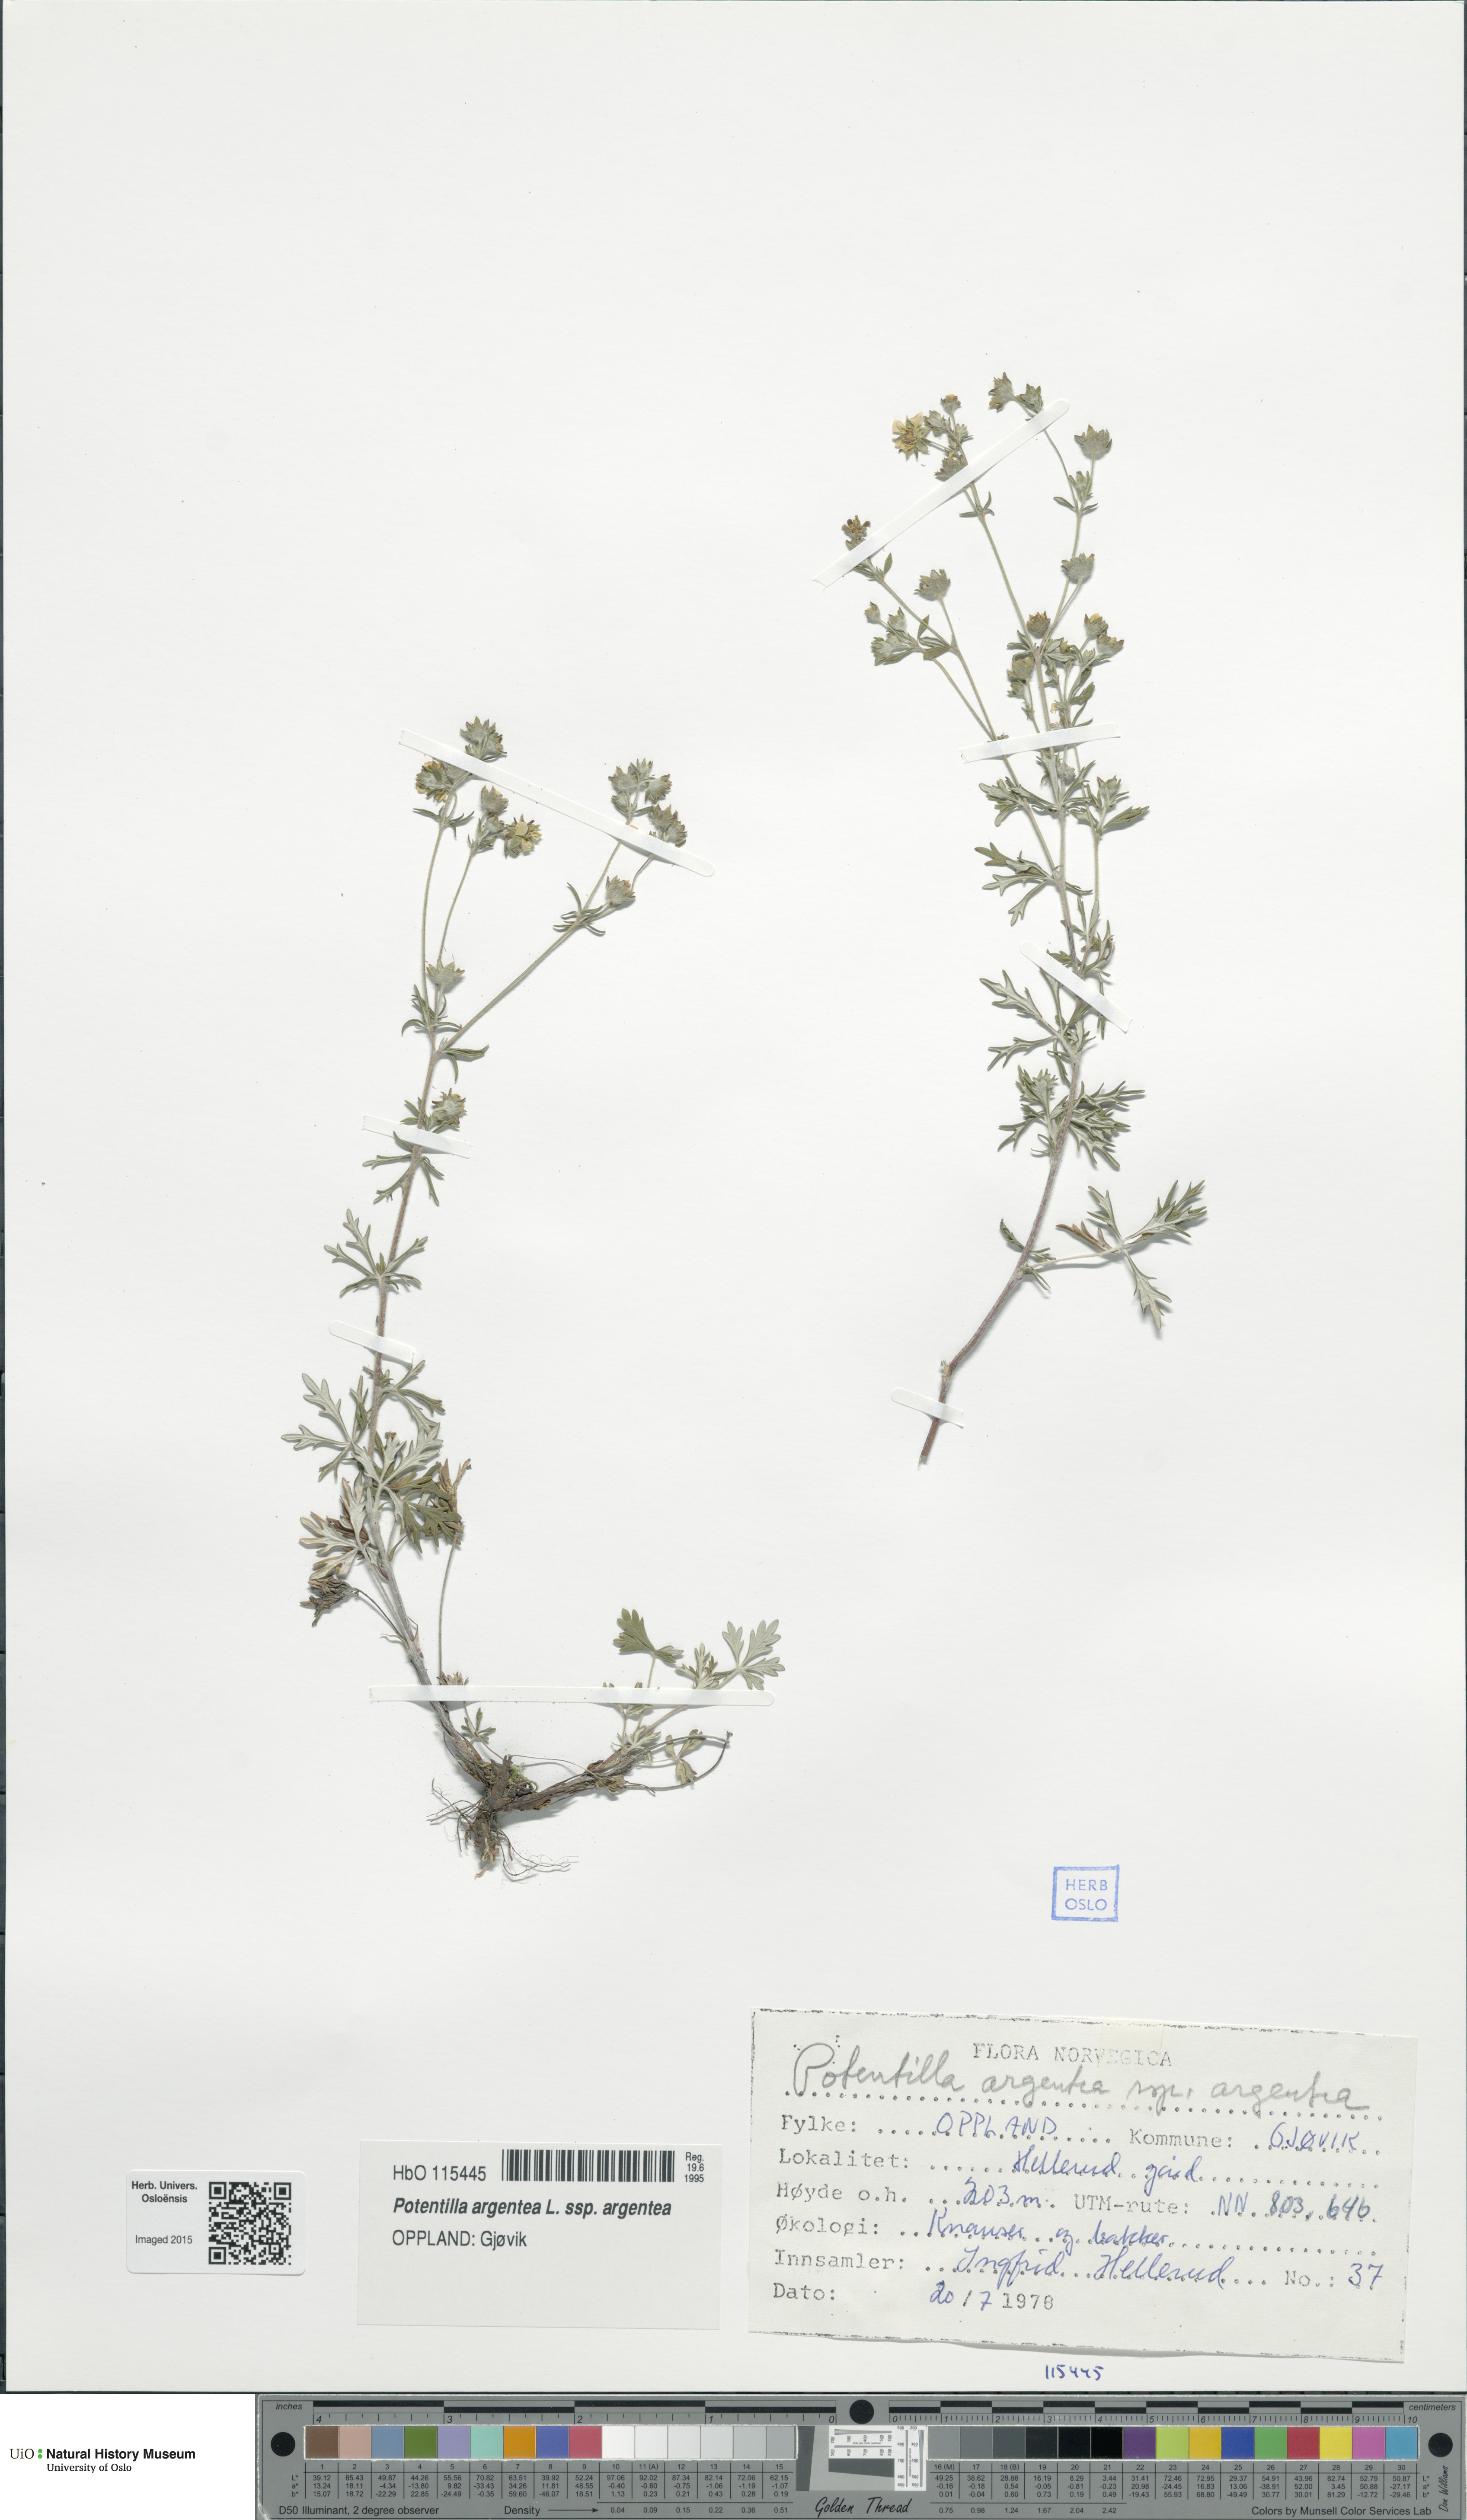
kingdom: Plantae
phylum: Tracheophyta
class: Magnoliopsida
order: Rosales
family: Rosaceae
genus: Potentilla
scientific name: Potentilla argentea
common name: Hoary cinquefoil
